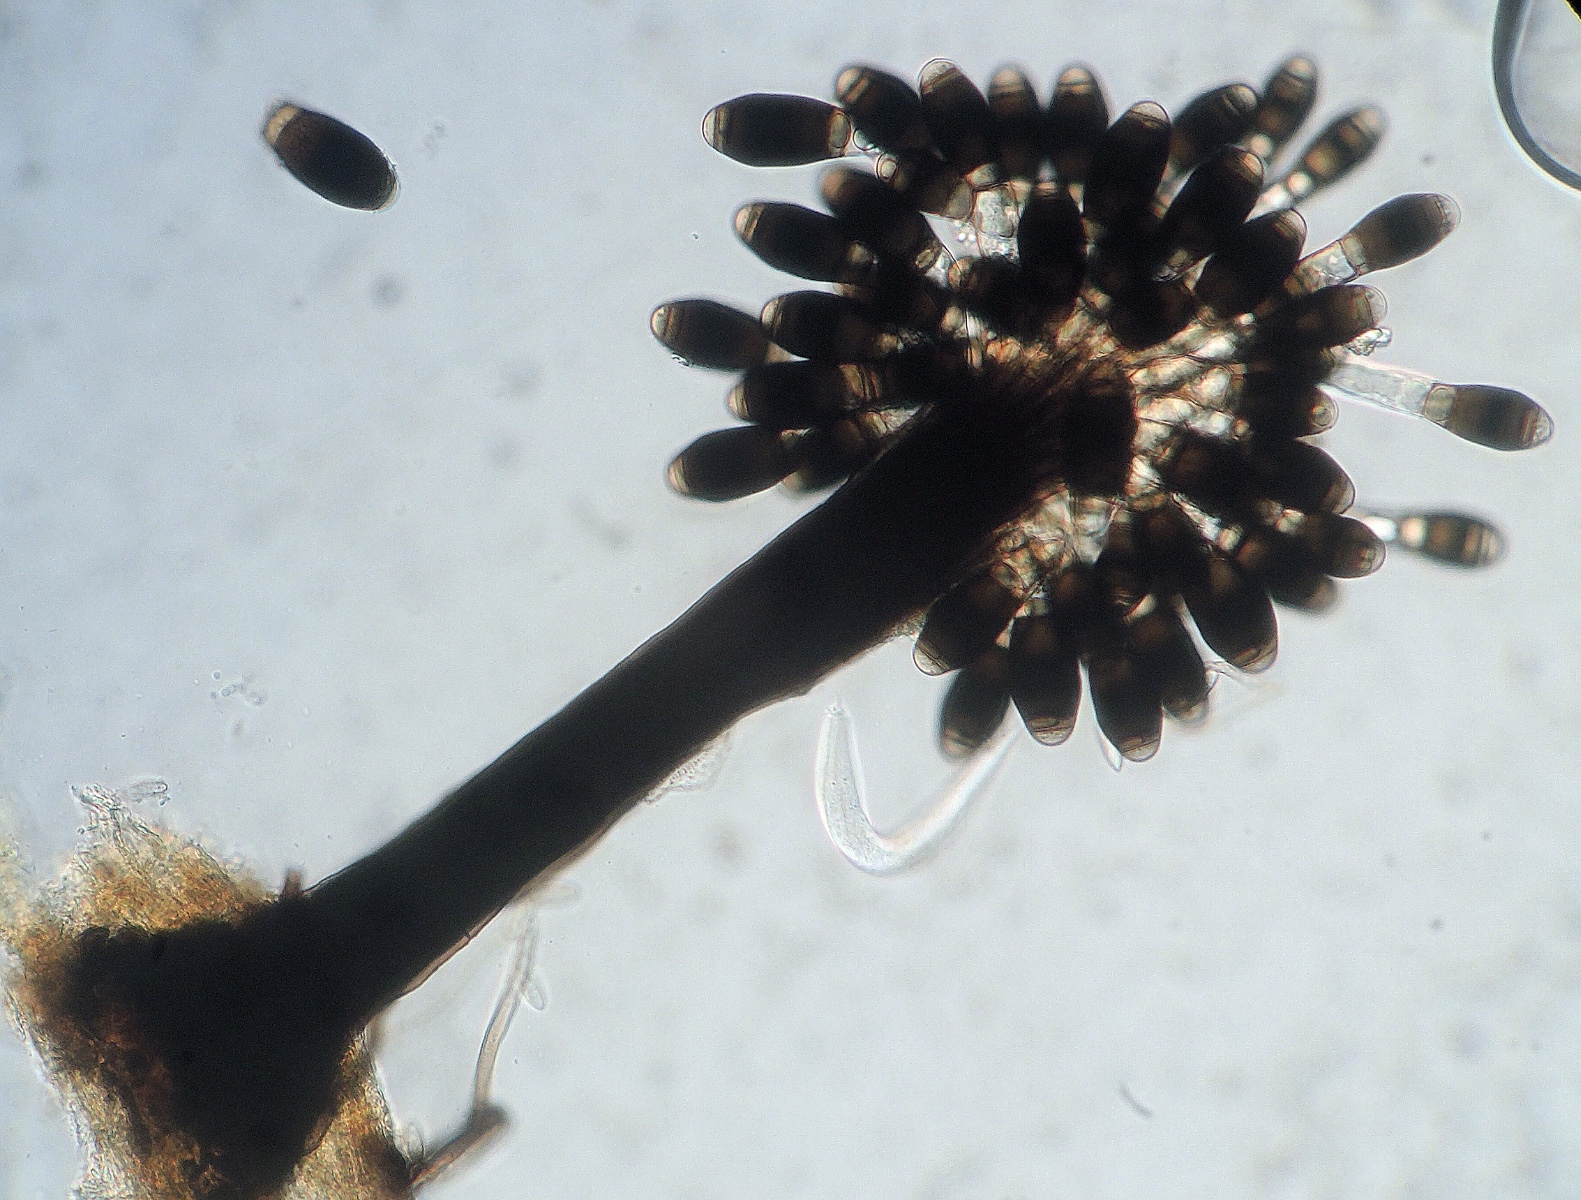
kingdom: Fungi
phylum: Ascomycota
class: Dothideomycetes
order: Pleosporales
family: Melanommataceae
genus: Phragmocephala
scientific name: Phragmocephala atra
